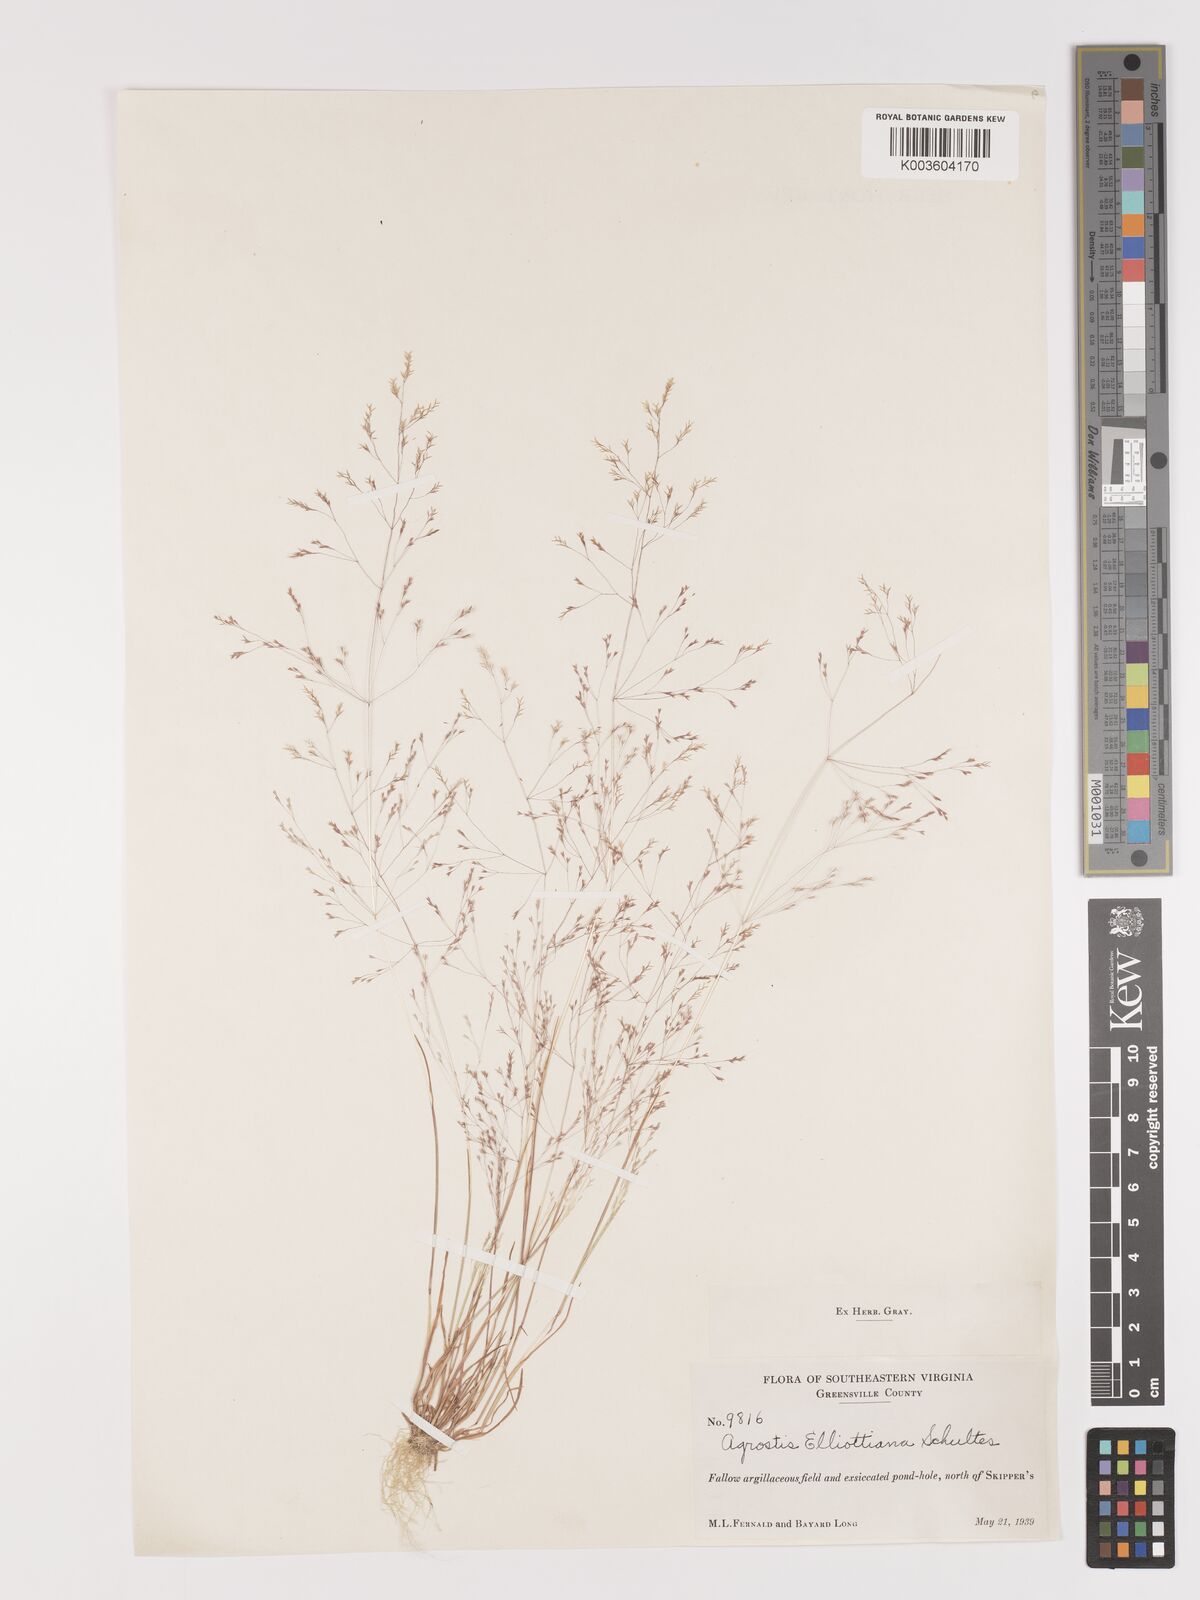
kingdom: Plantae
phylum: Tracheophyta
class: Liliopsida
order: Poales
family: Poaceae
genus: Agrostis
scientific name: Agrostis elliottiana
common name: Elliott's bent
